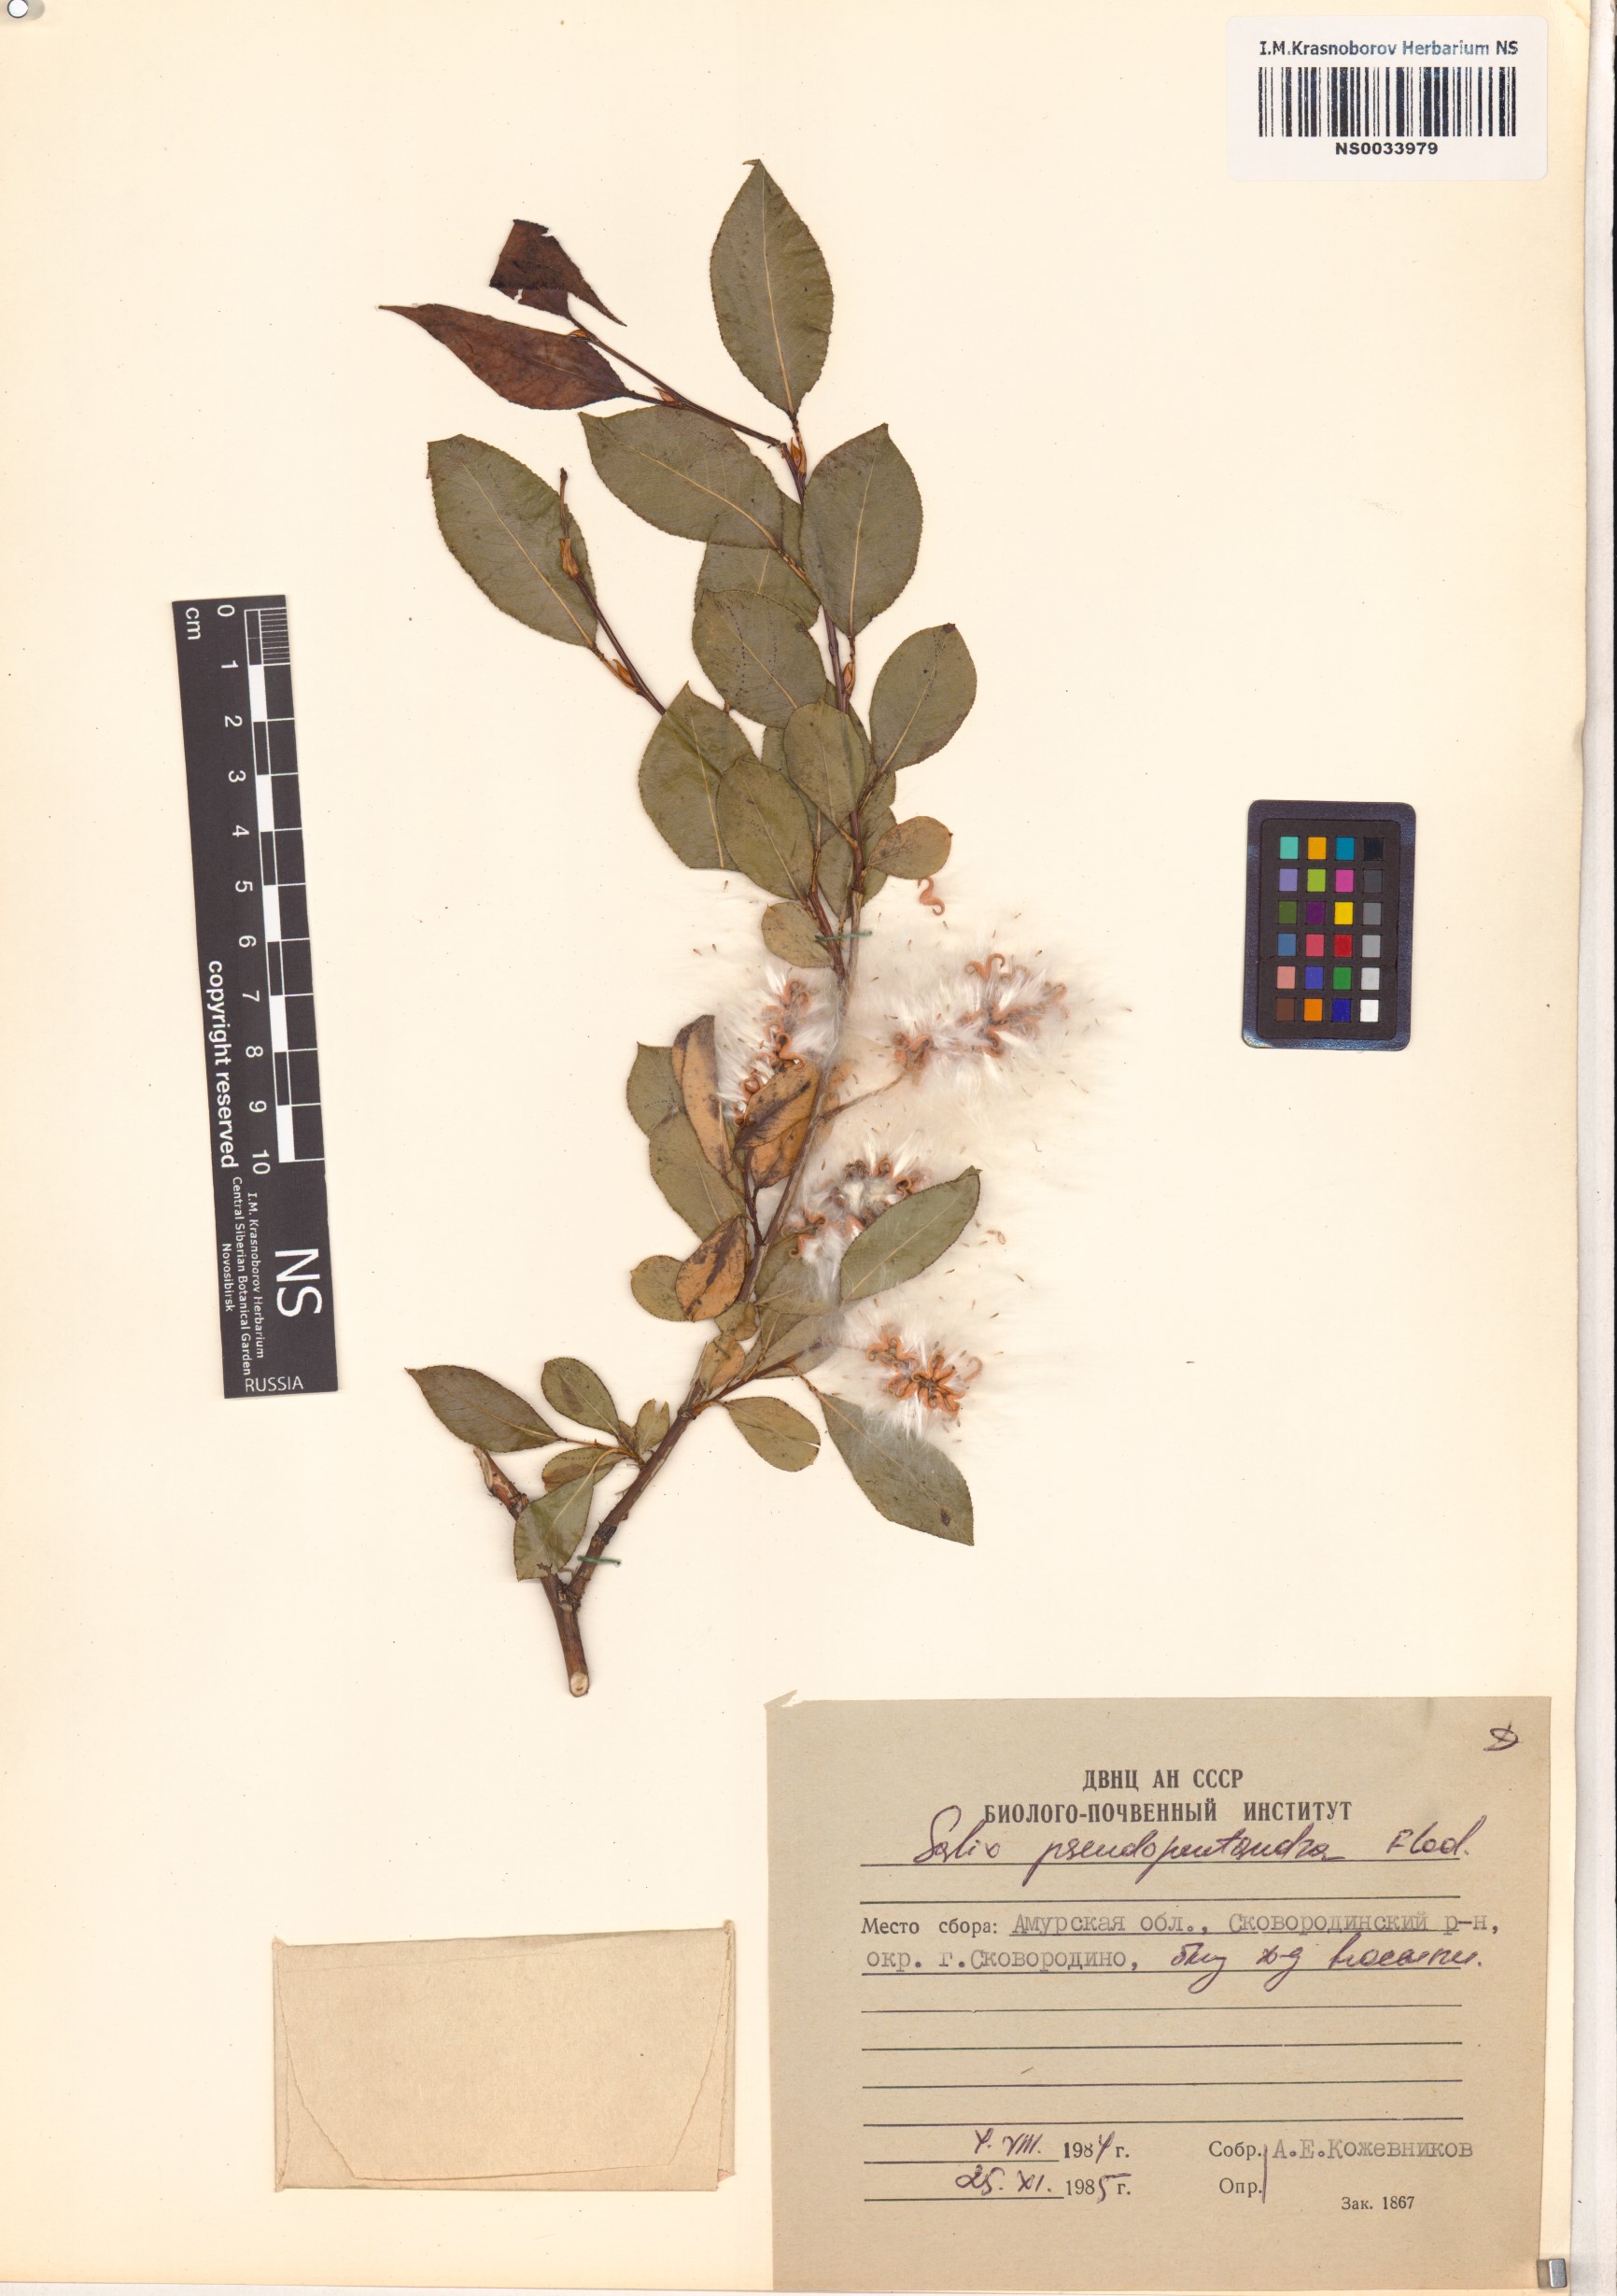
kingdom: Plantae
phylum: Tracheophyta
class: Magnoliopsida
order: Malpighiales
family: Salicaceae
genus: Salix
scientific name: Salix pseudopentandra
